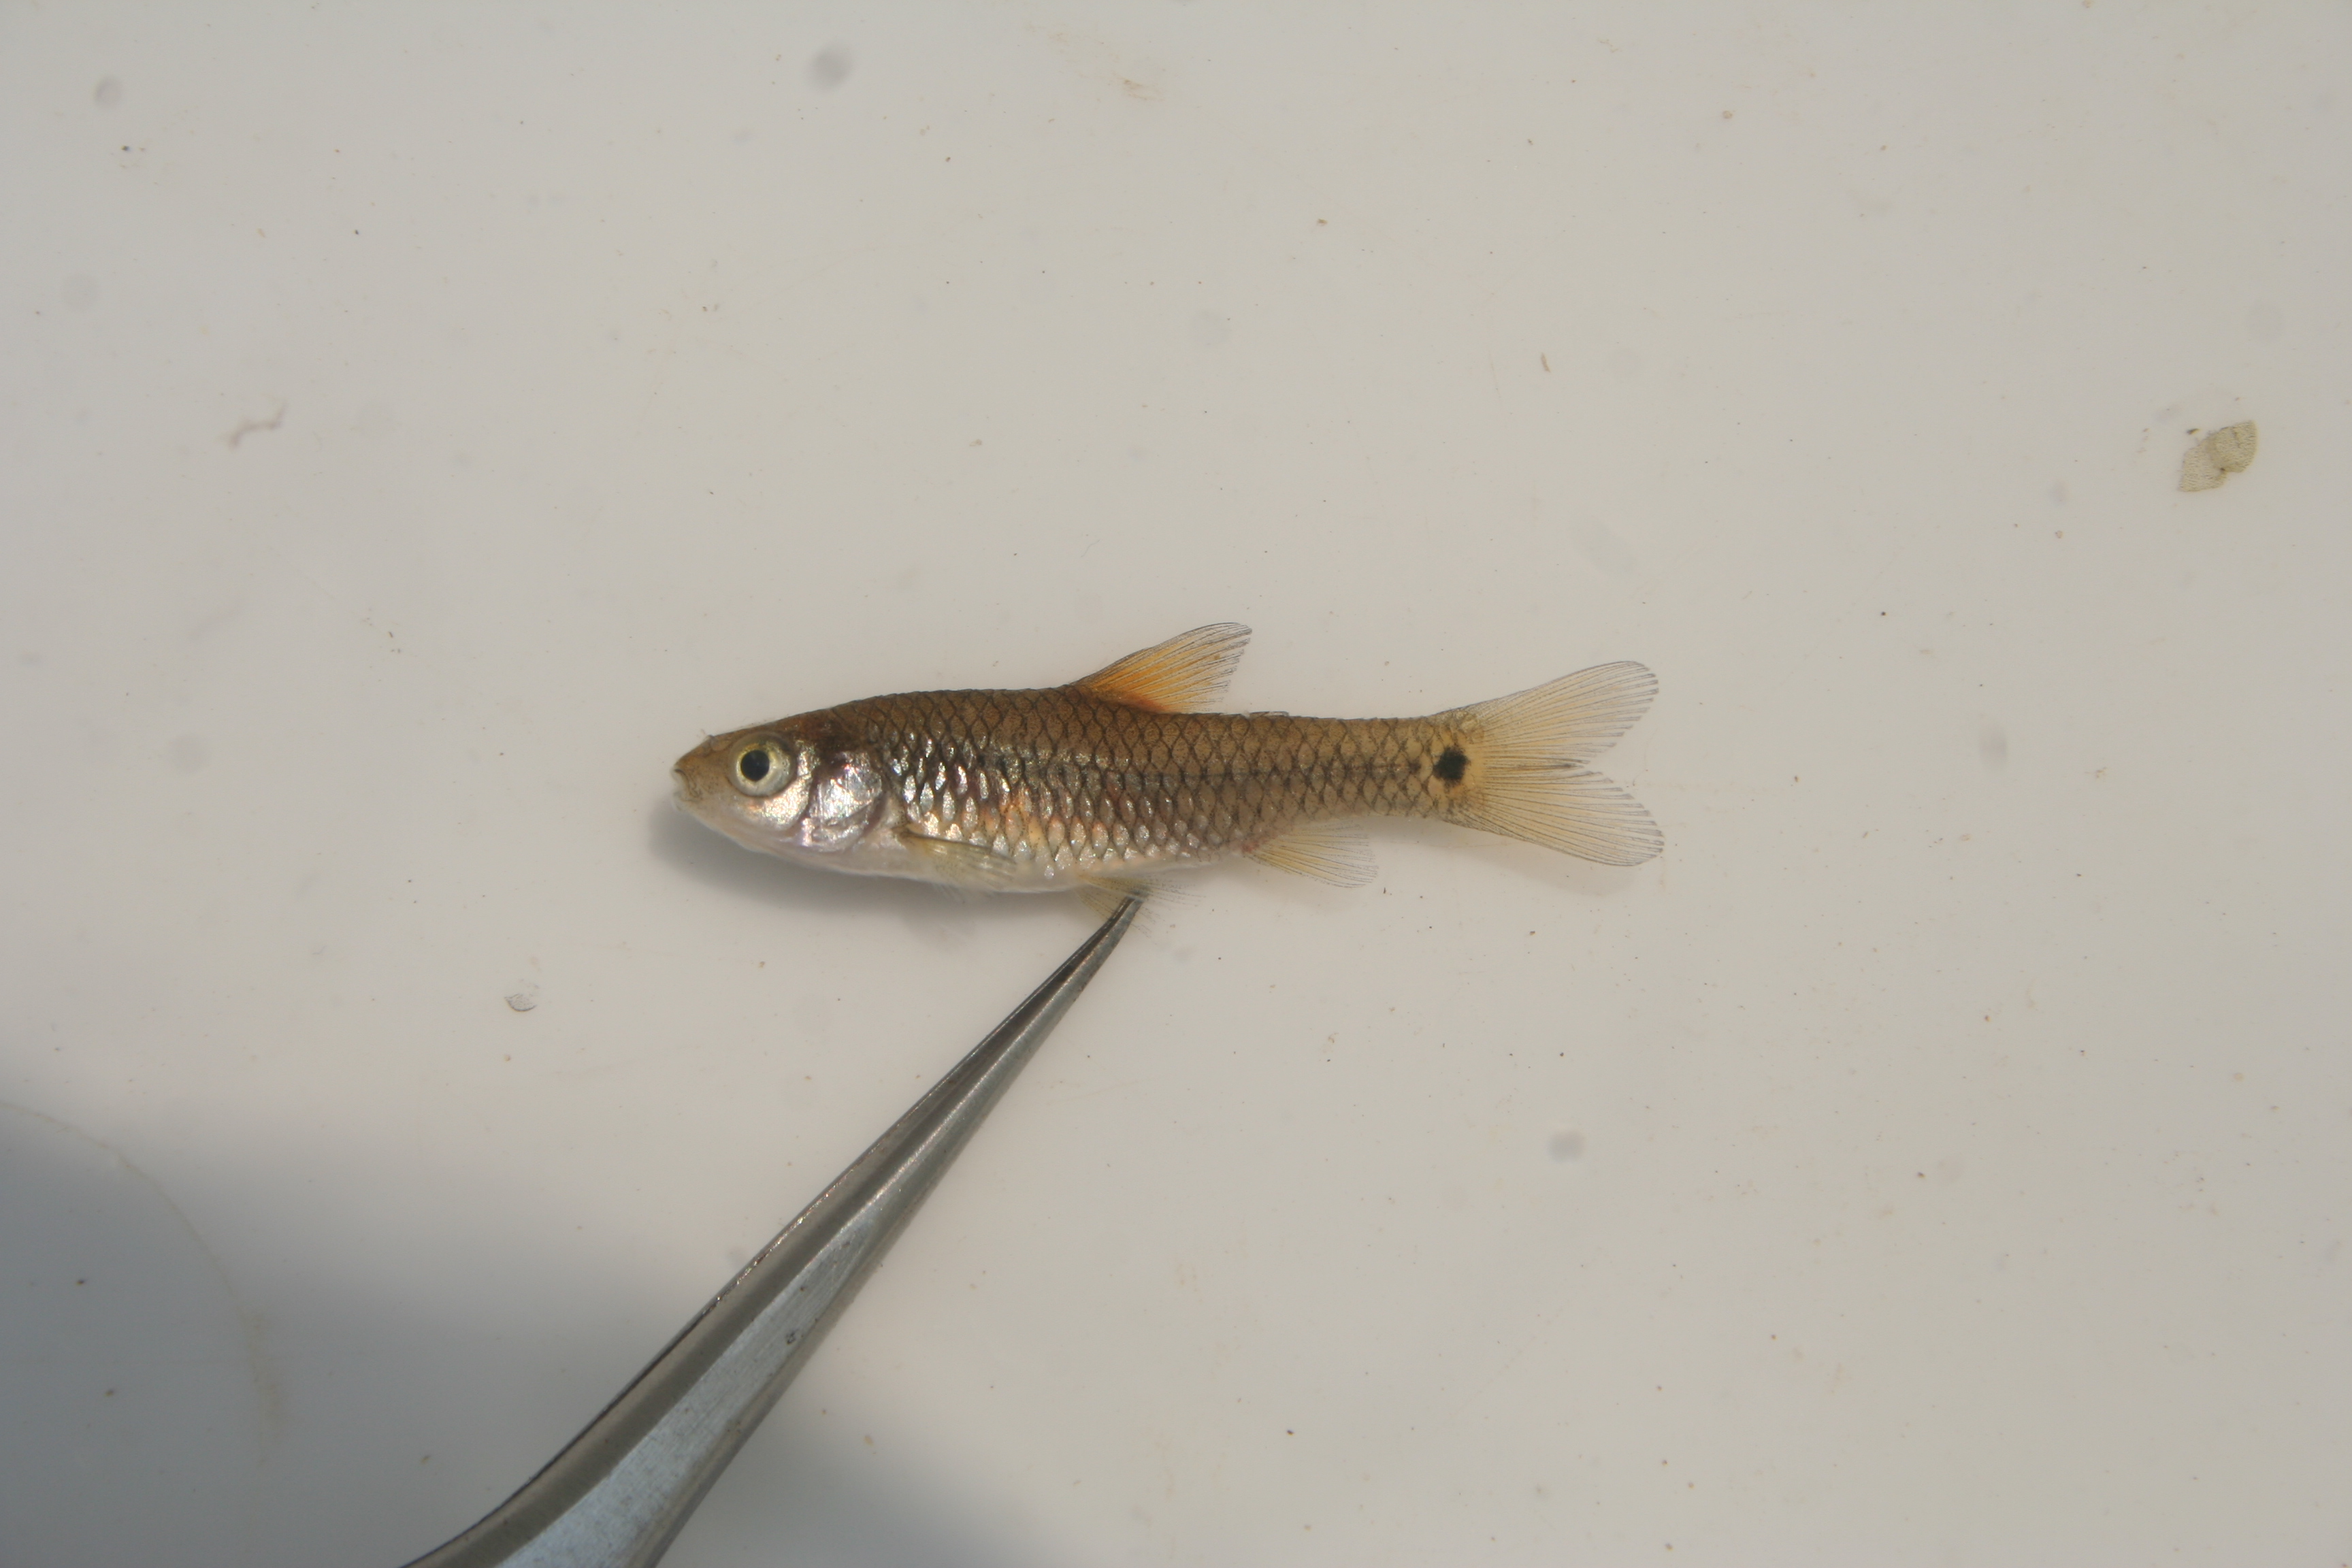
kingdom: Animalia
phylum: Chordata
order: Cypriniformes
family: Cyprinidae
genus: Barbus
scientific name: Barbus
